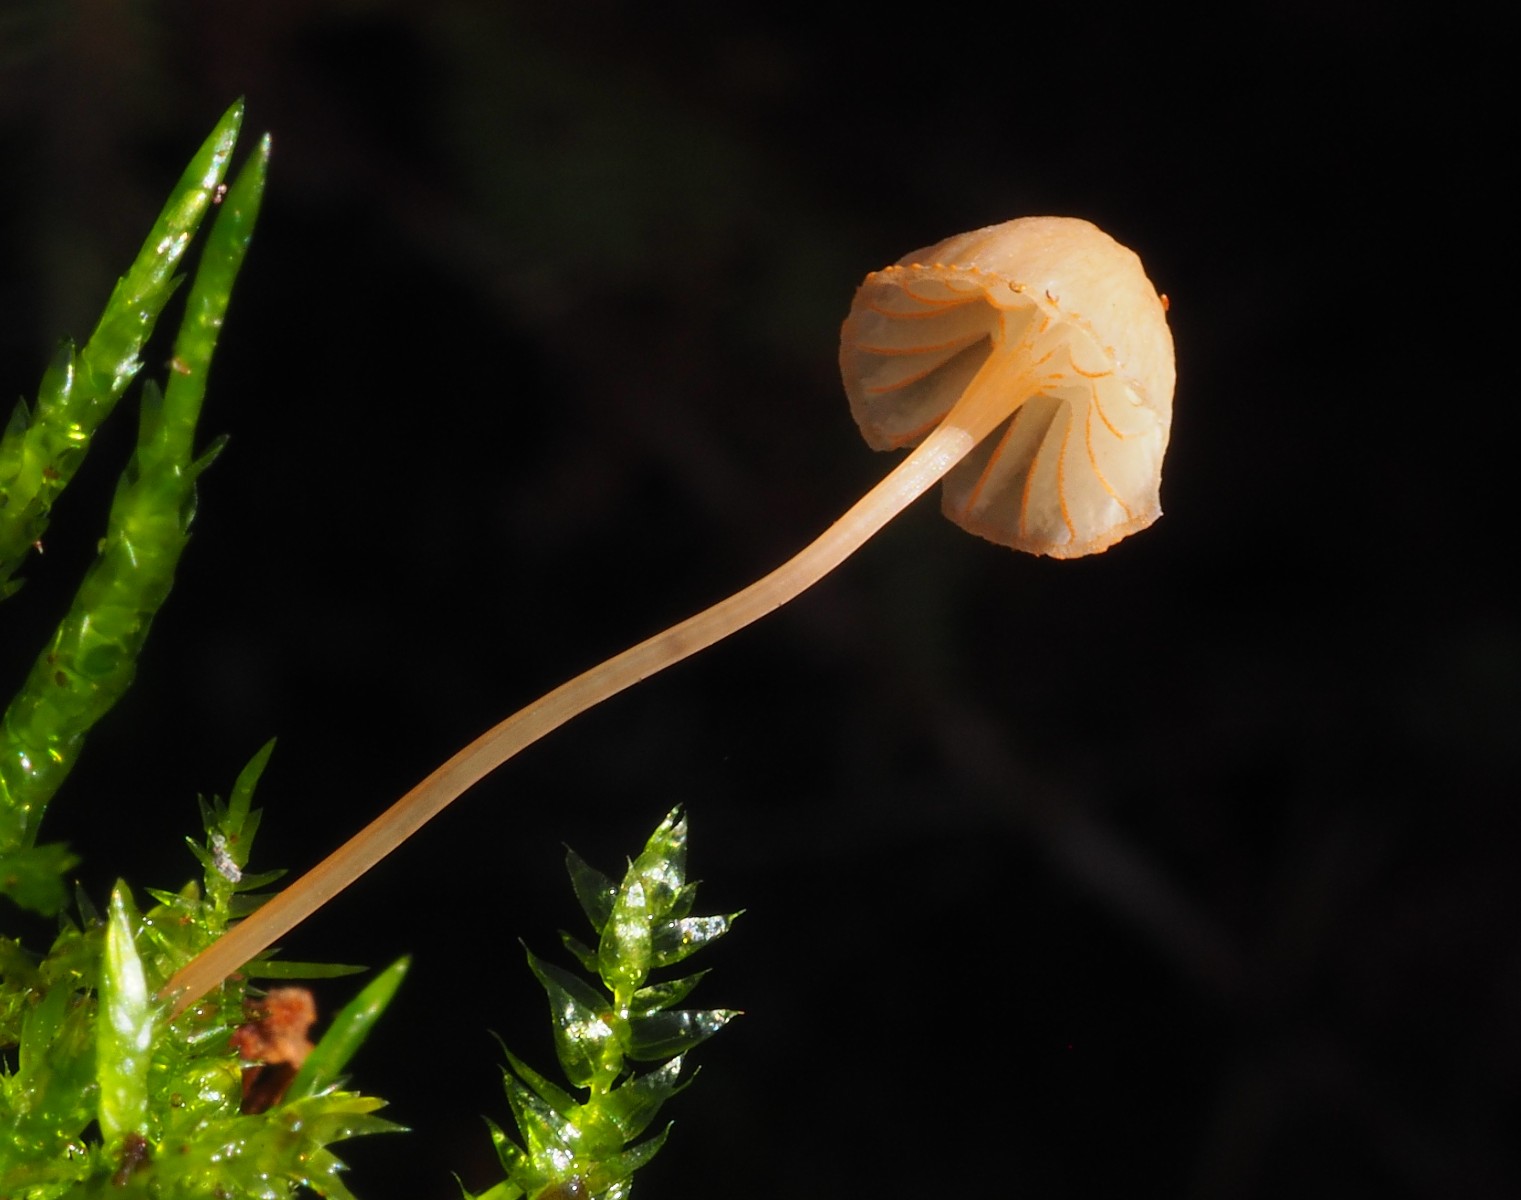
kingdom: Fungi
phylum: Basidiomycota
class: Agaricomycetes
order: Agaricales
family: Mycenaceae
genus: Mycena
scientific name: Mycena pterigena
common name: bregne-huesvamp
